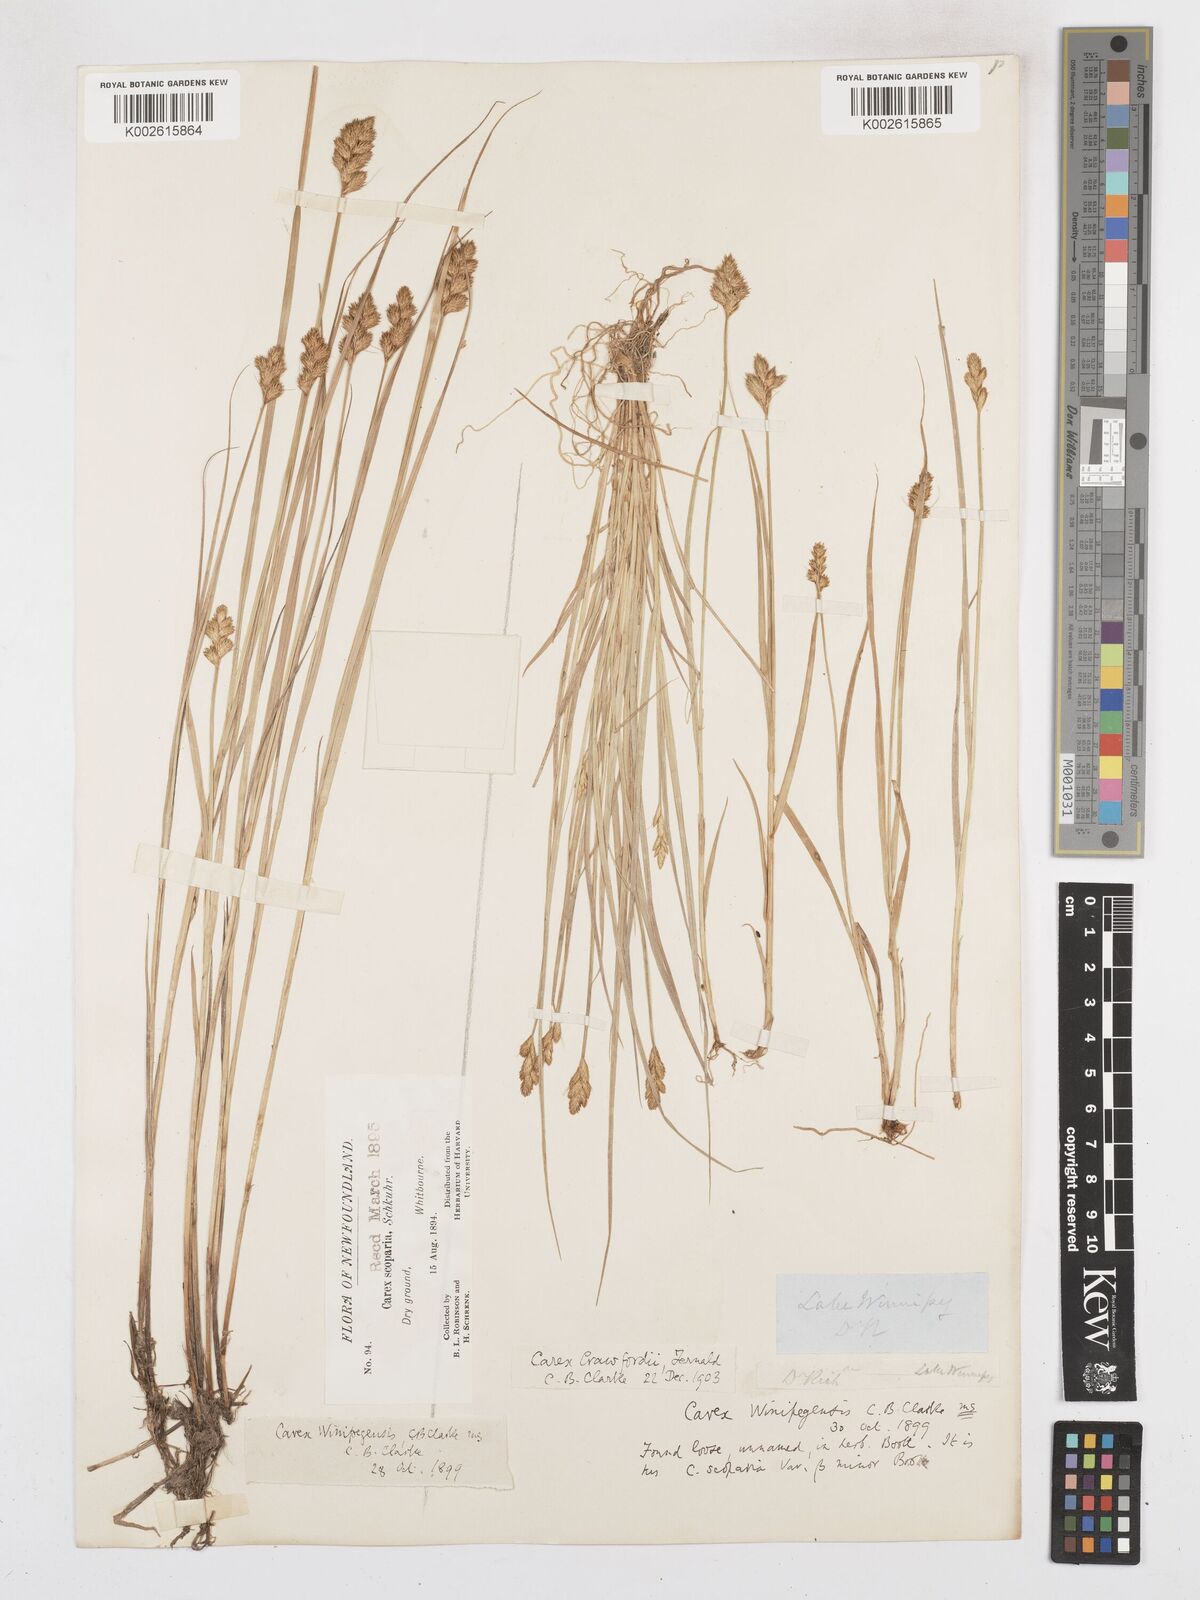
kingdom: Plantae
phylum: Tracheophyta
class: Liliopsida
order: Poales
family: Cyperaceae
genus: Carex
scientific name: Carex crawfordii
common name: Crawford's sedge
